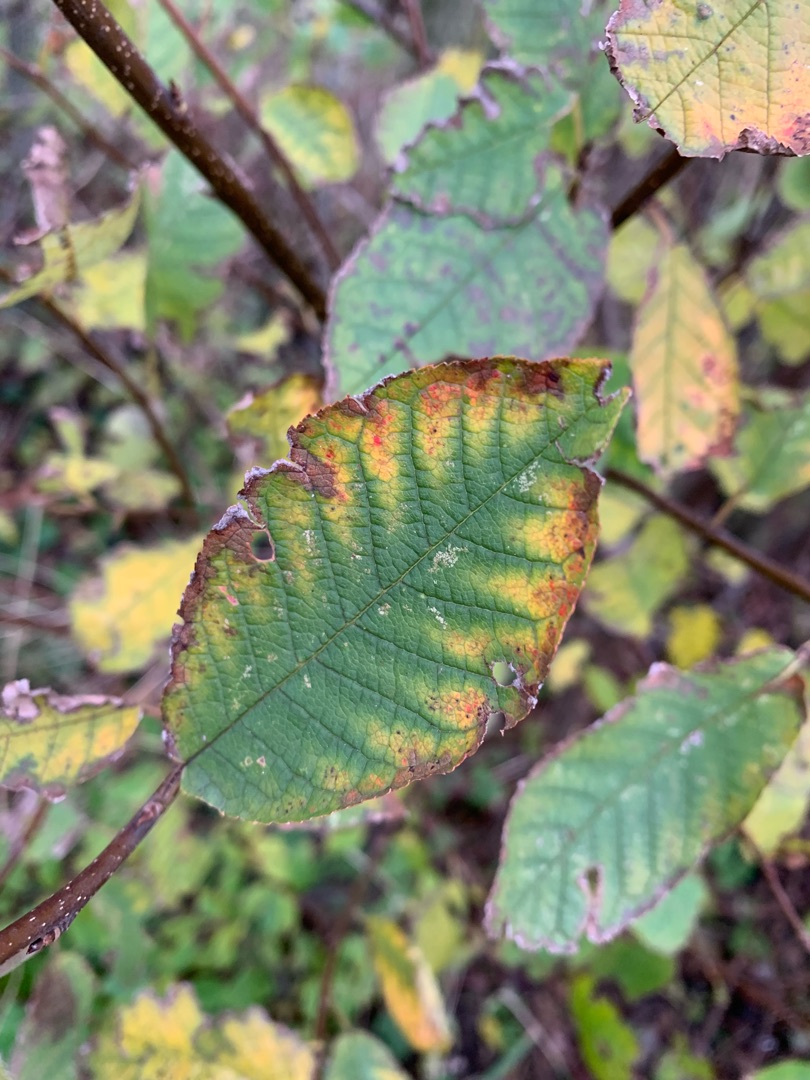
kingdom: Plantae
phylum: Tracheophyta
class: Magnoliopsida
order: Rosales
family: Rosaceae
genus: Prunus
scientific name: Prunus padus
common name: Almindelig hæg
